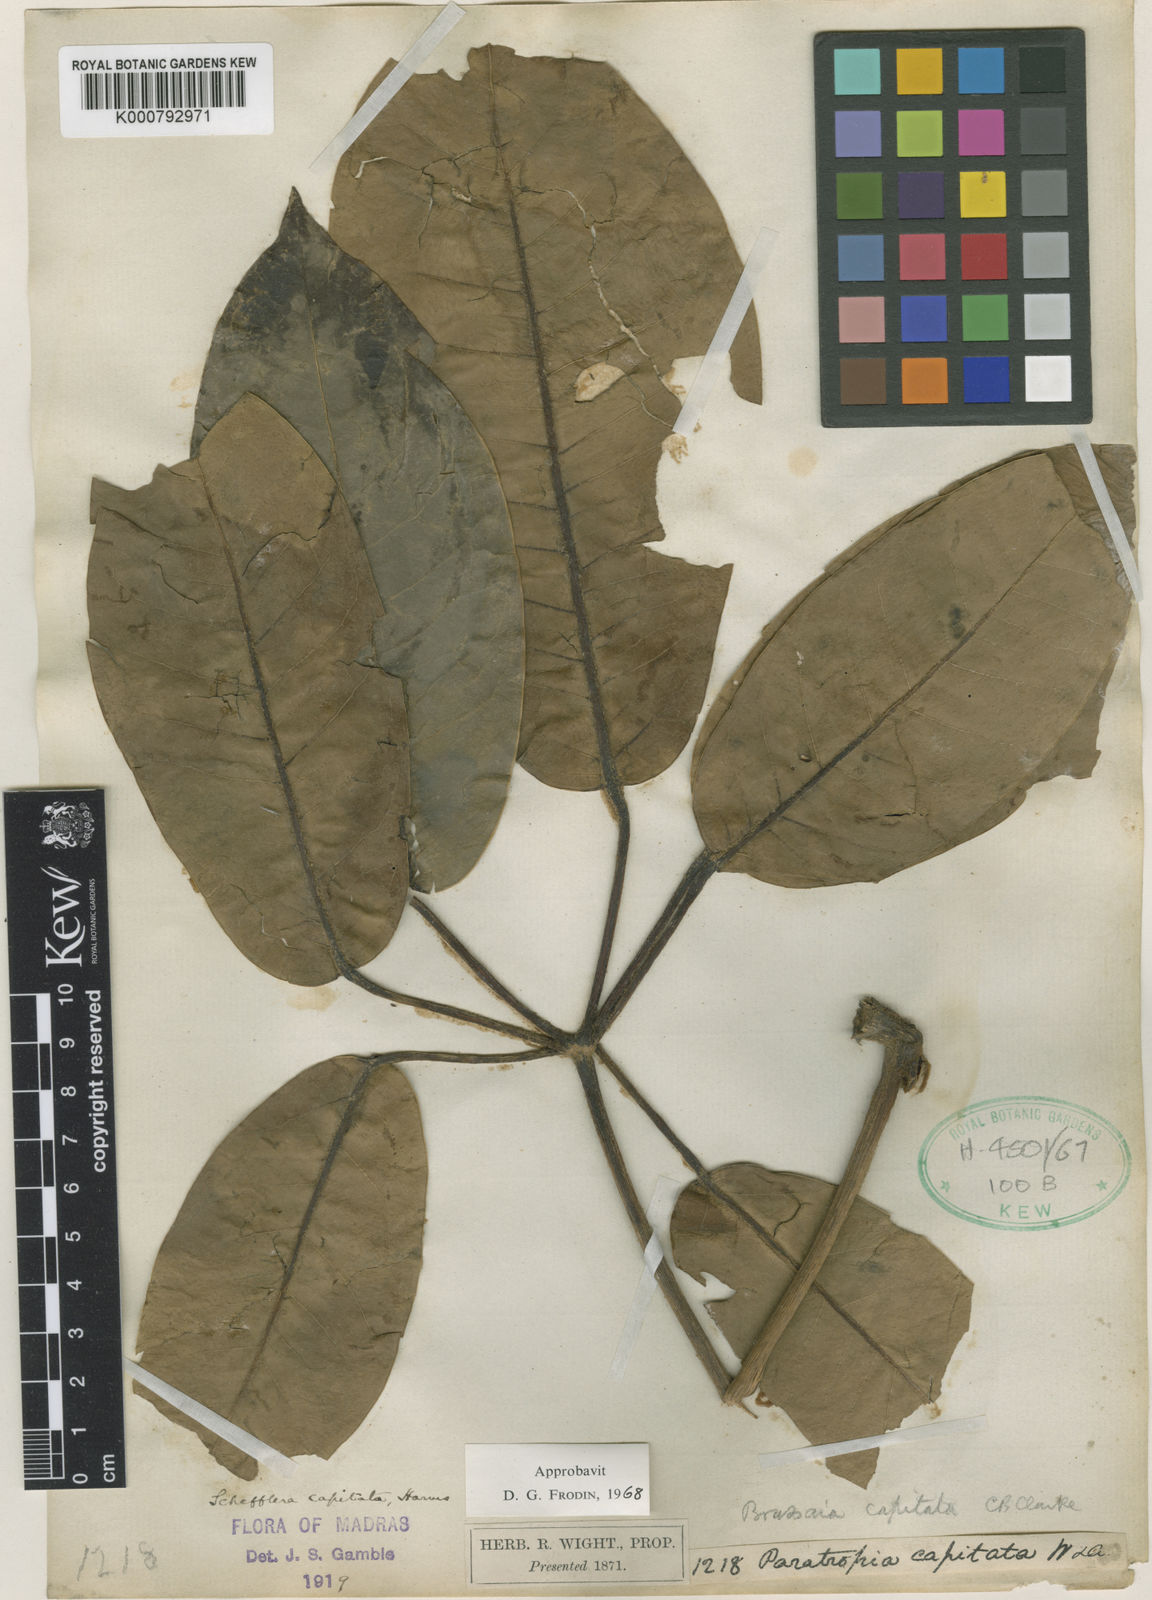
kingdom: Plantae
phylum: Tracheophyta
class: Magnoliopsida
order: Apiales
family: Araliaceae
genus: Heptapleurum
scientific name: Heptapleurum capitatum
